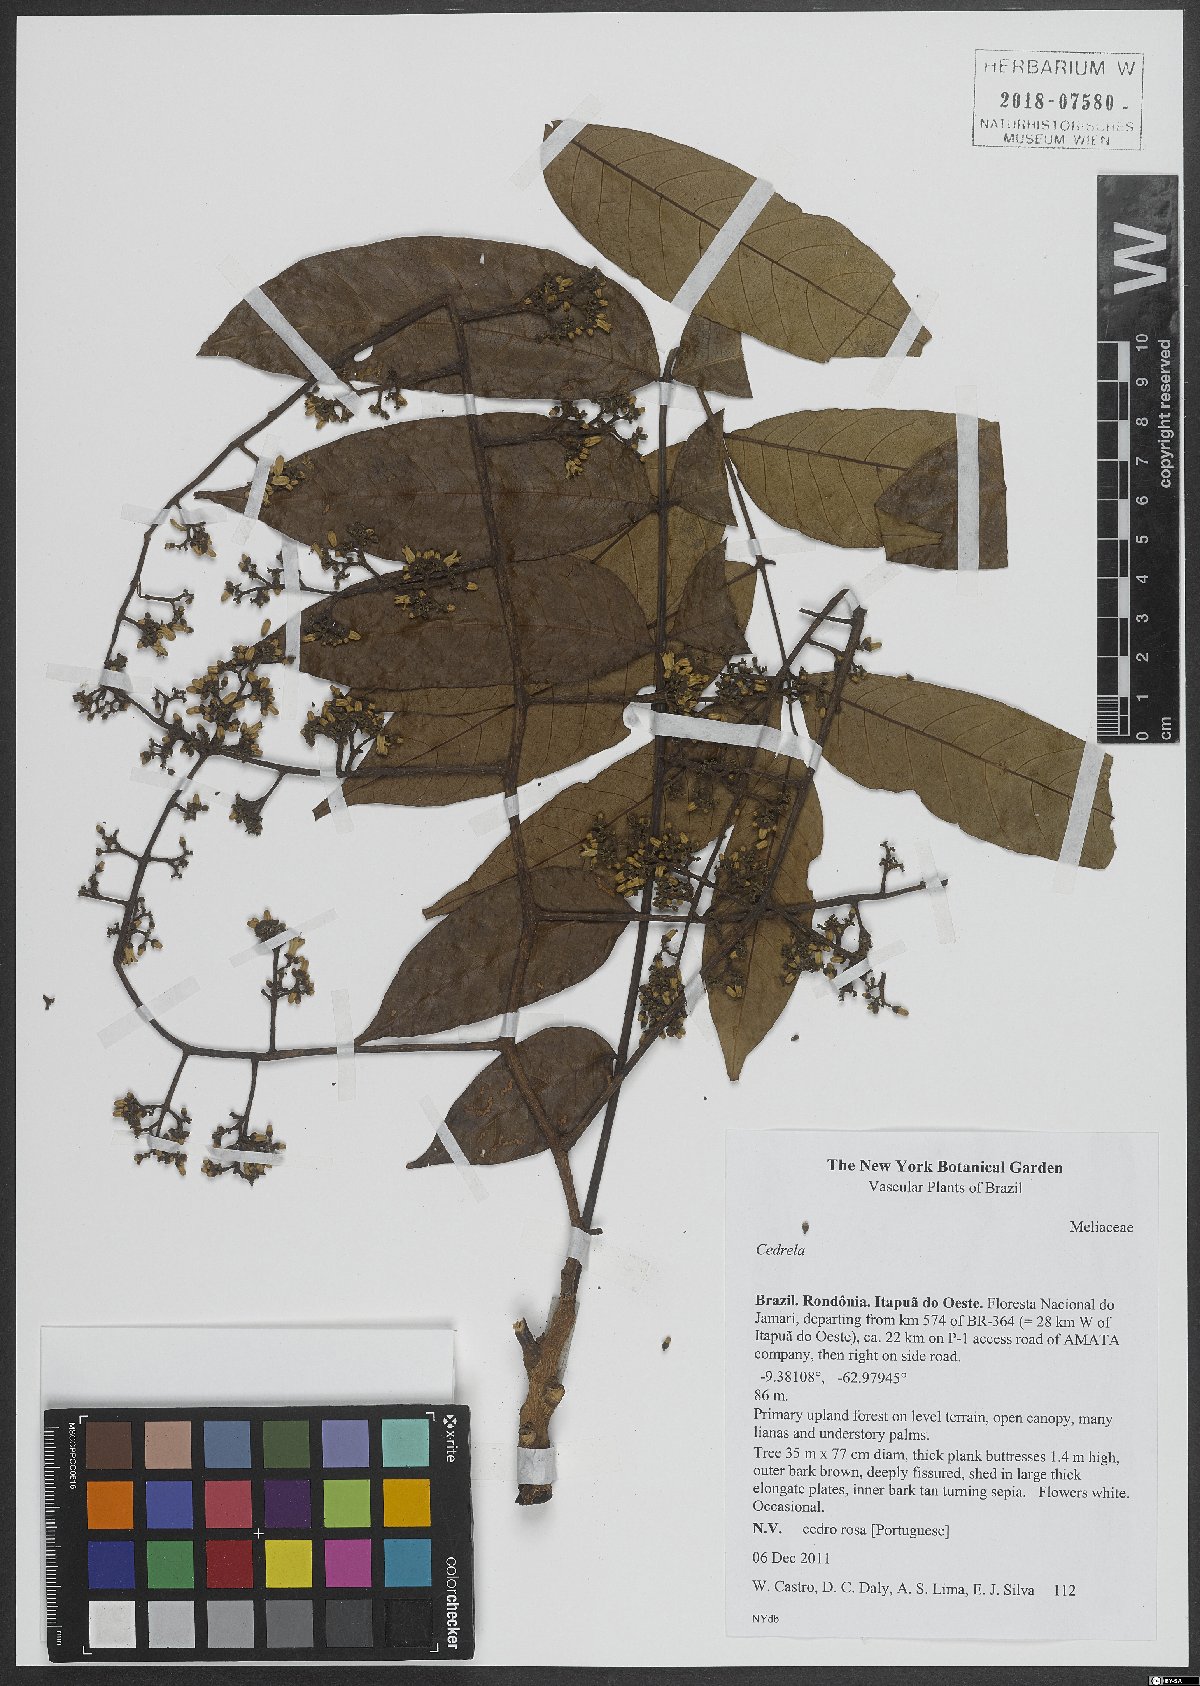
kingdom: Plantae
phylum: Tracheophyta
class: Magnoliopsida
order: Sapindales
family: Meliaceae
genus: Cedrela
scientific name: Cedrela
